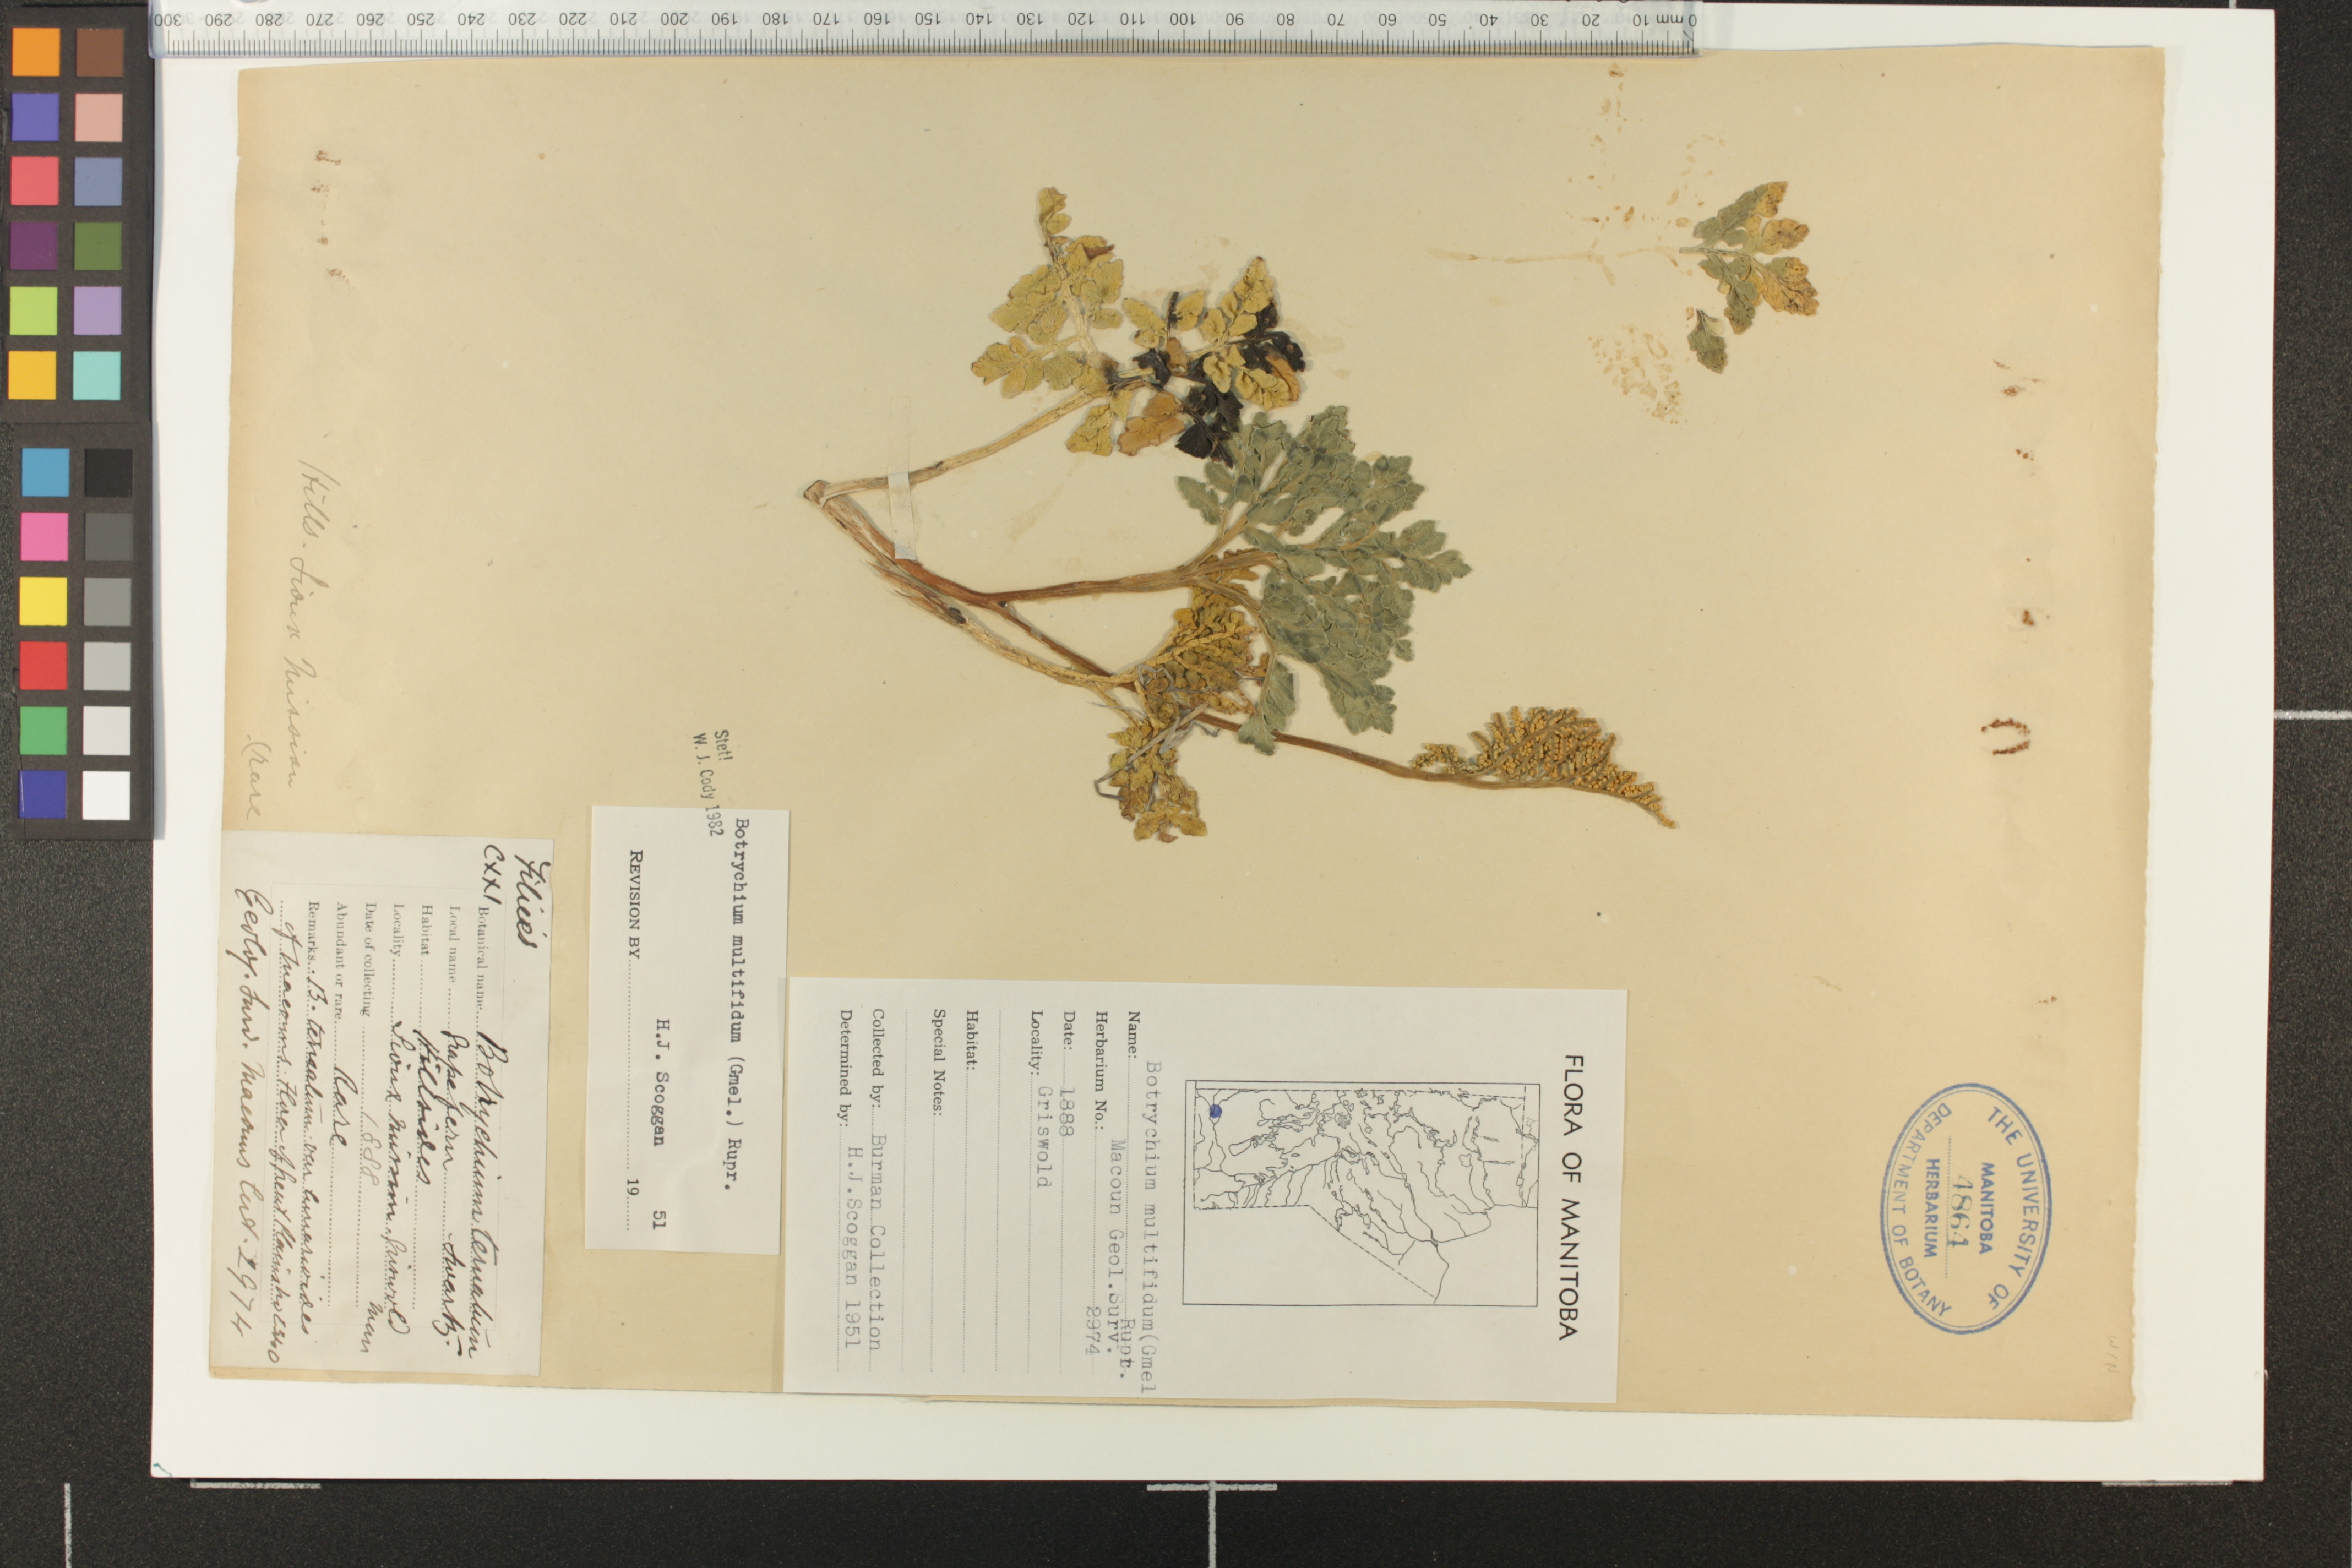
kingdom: Plantae
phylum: Tracheophyta
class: Polypodiopsida
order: Ophioglossales
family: Ophioglossaceae
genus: Sceptridium
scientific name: Sceptridium multifidum
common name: Leathery grape fern
